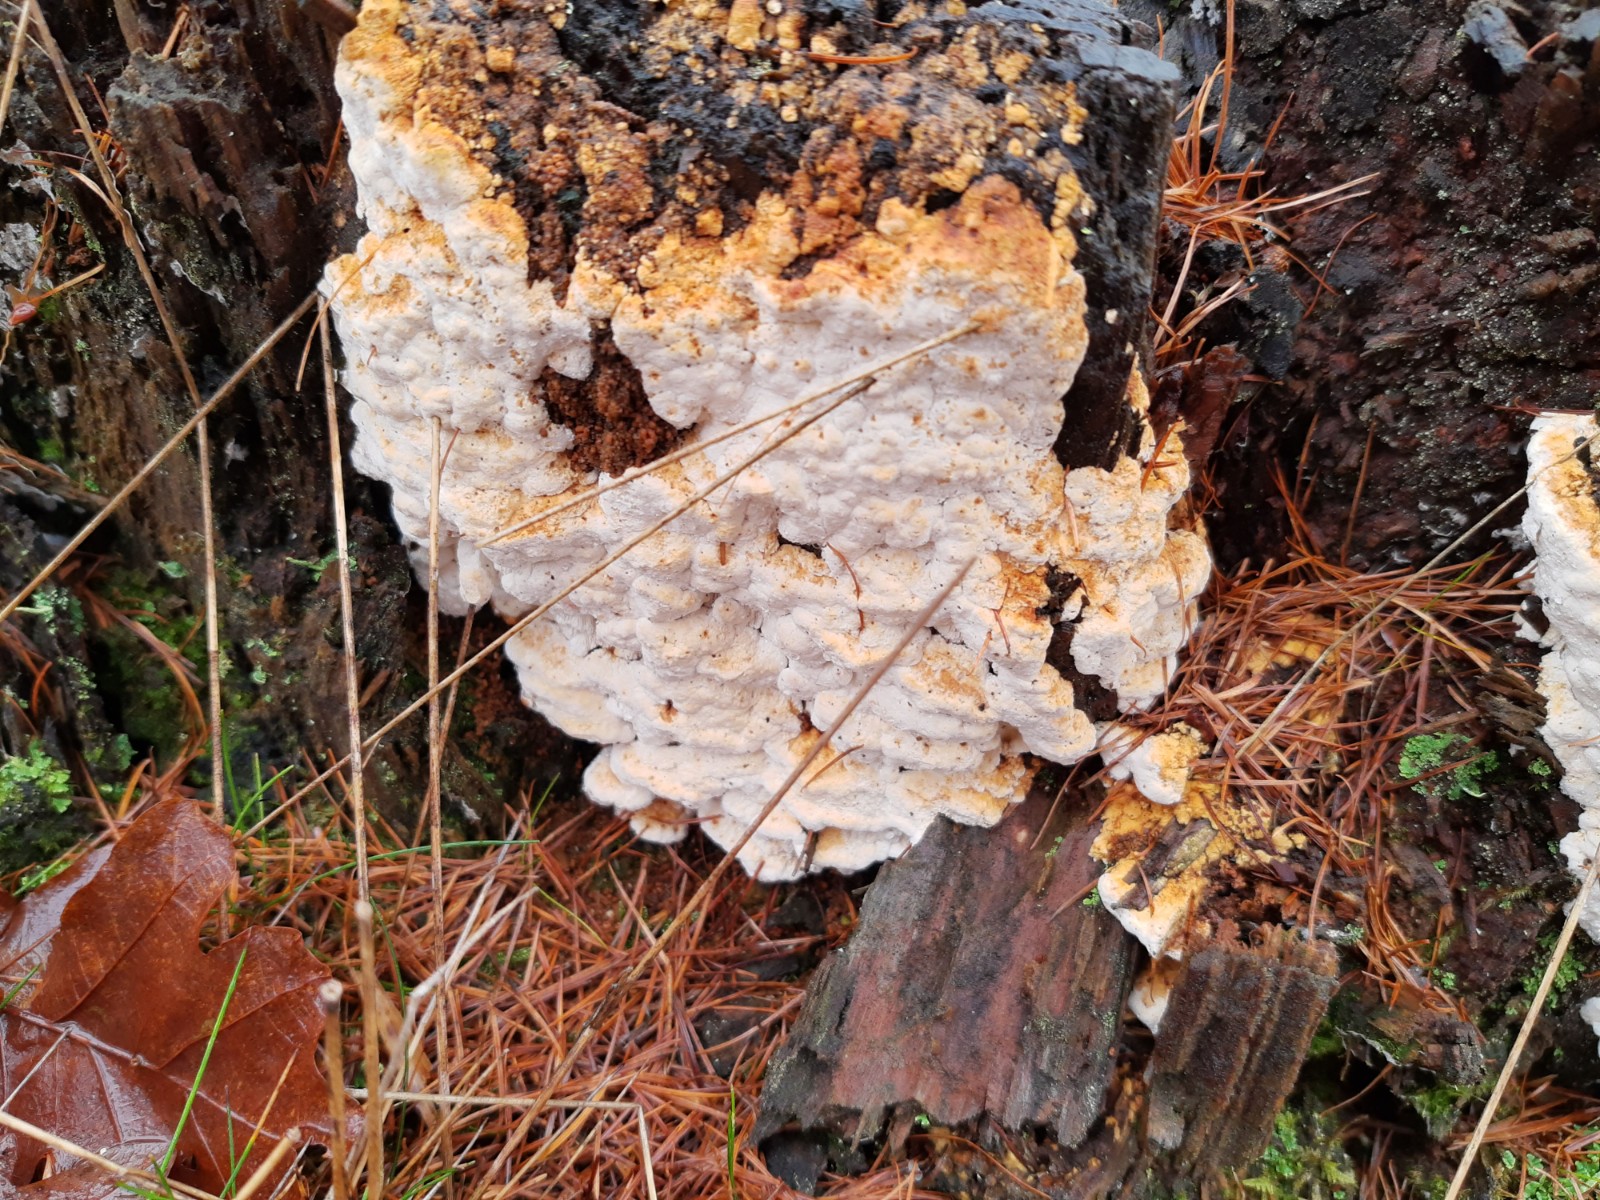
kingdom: Fungi
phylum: Basidiomycota
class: Agaricomycetes
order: Polyporales
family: Fomitopsidaceae
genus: Neoantrodia
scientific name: Neoantrodia serialis
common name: række-sejporesvamp
